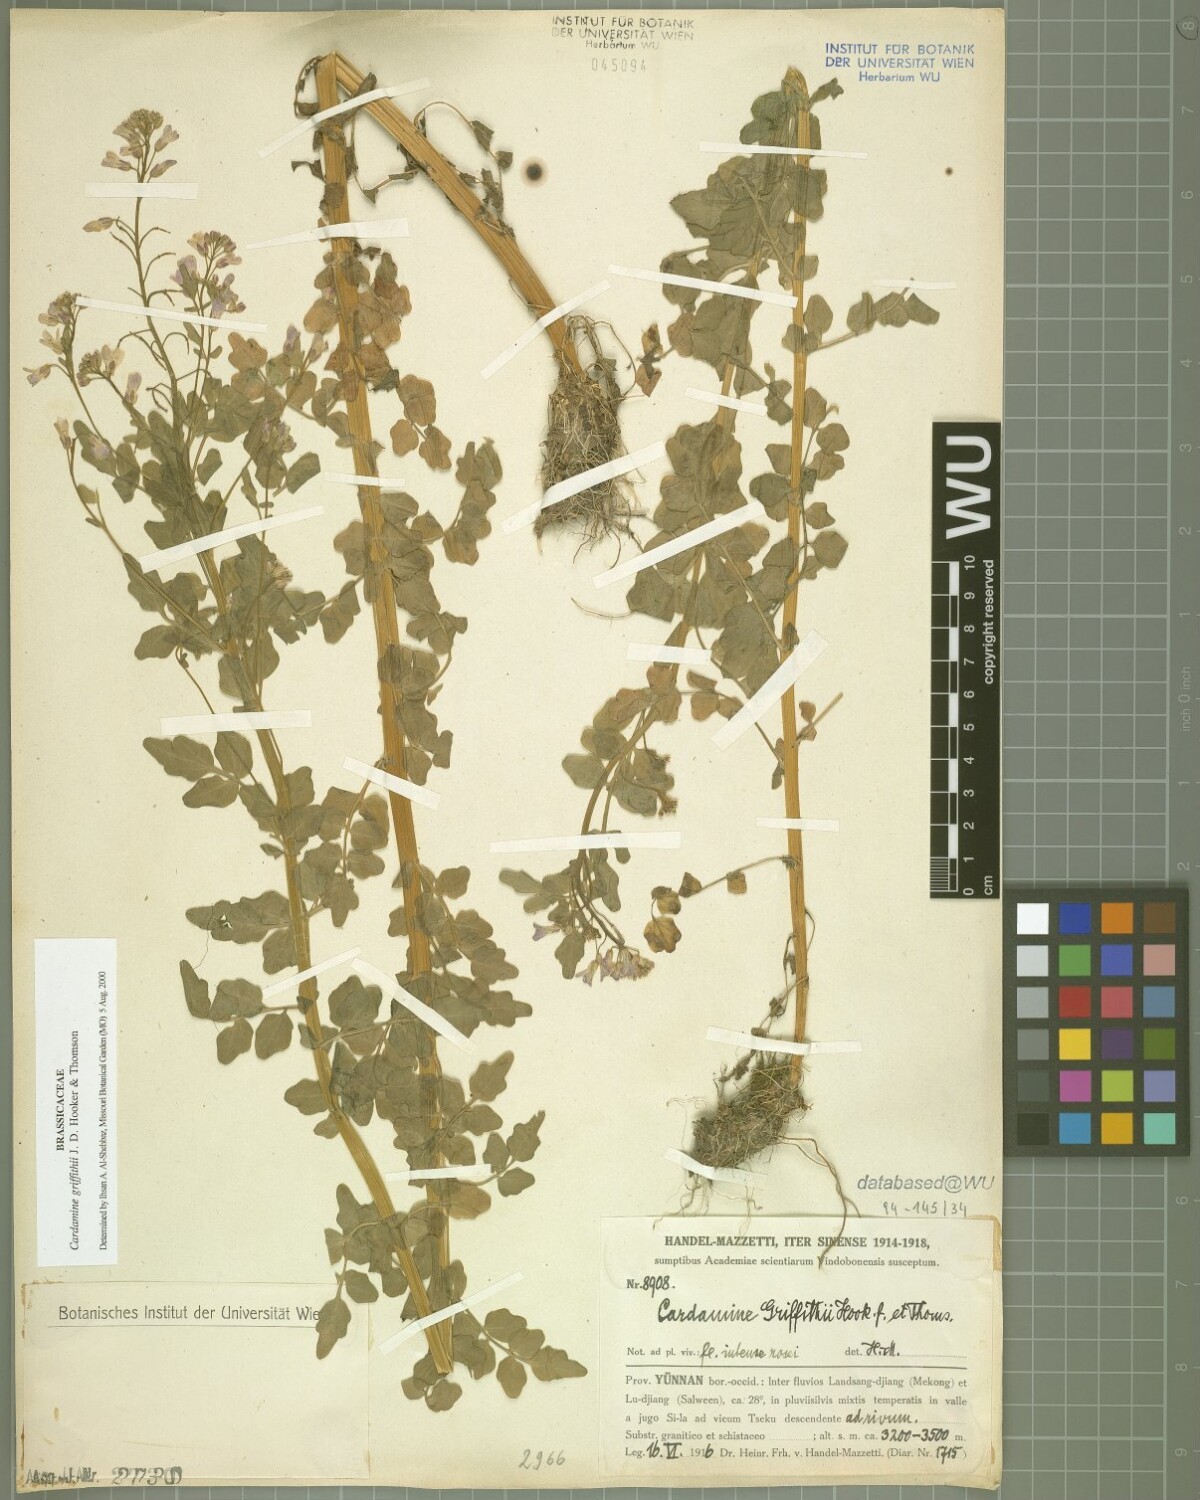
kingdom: Plantae
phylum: Tracheophyta
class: Magnoliopsida
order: Brassicales
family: Brassicaceae
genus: Cardamine
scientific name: Cardamine griffithii
